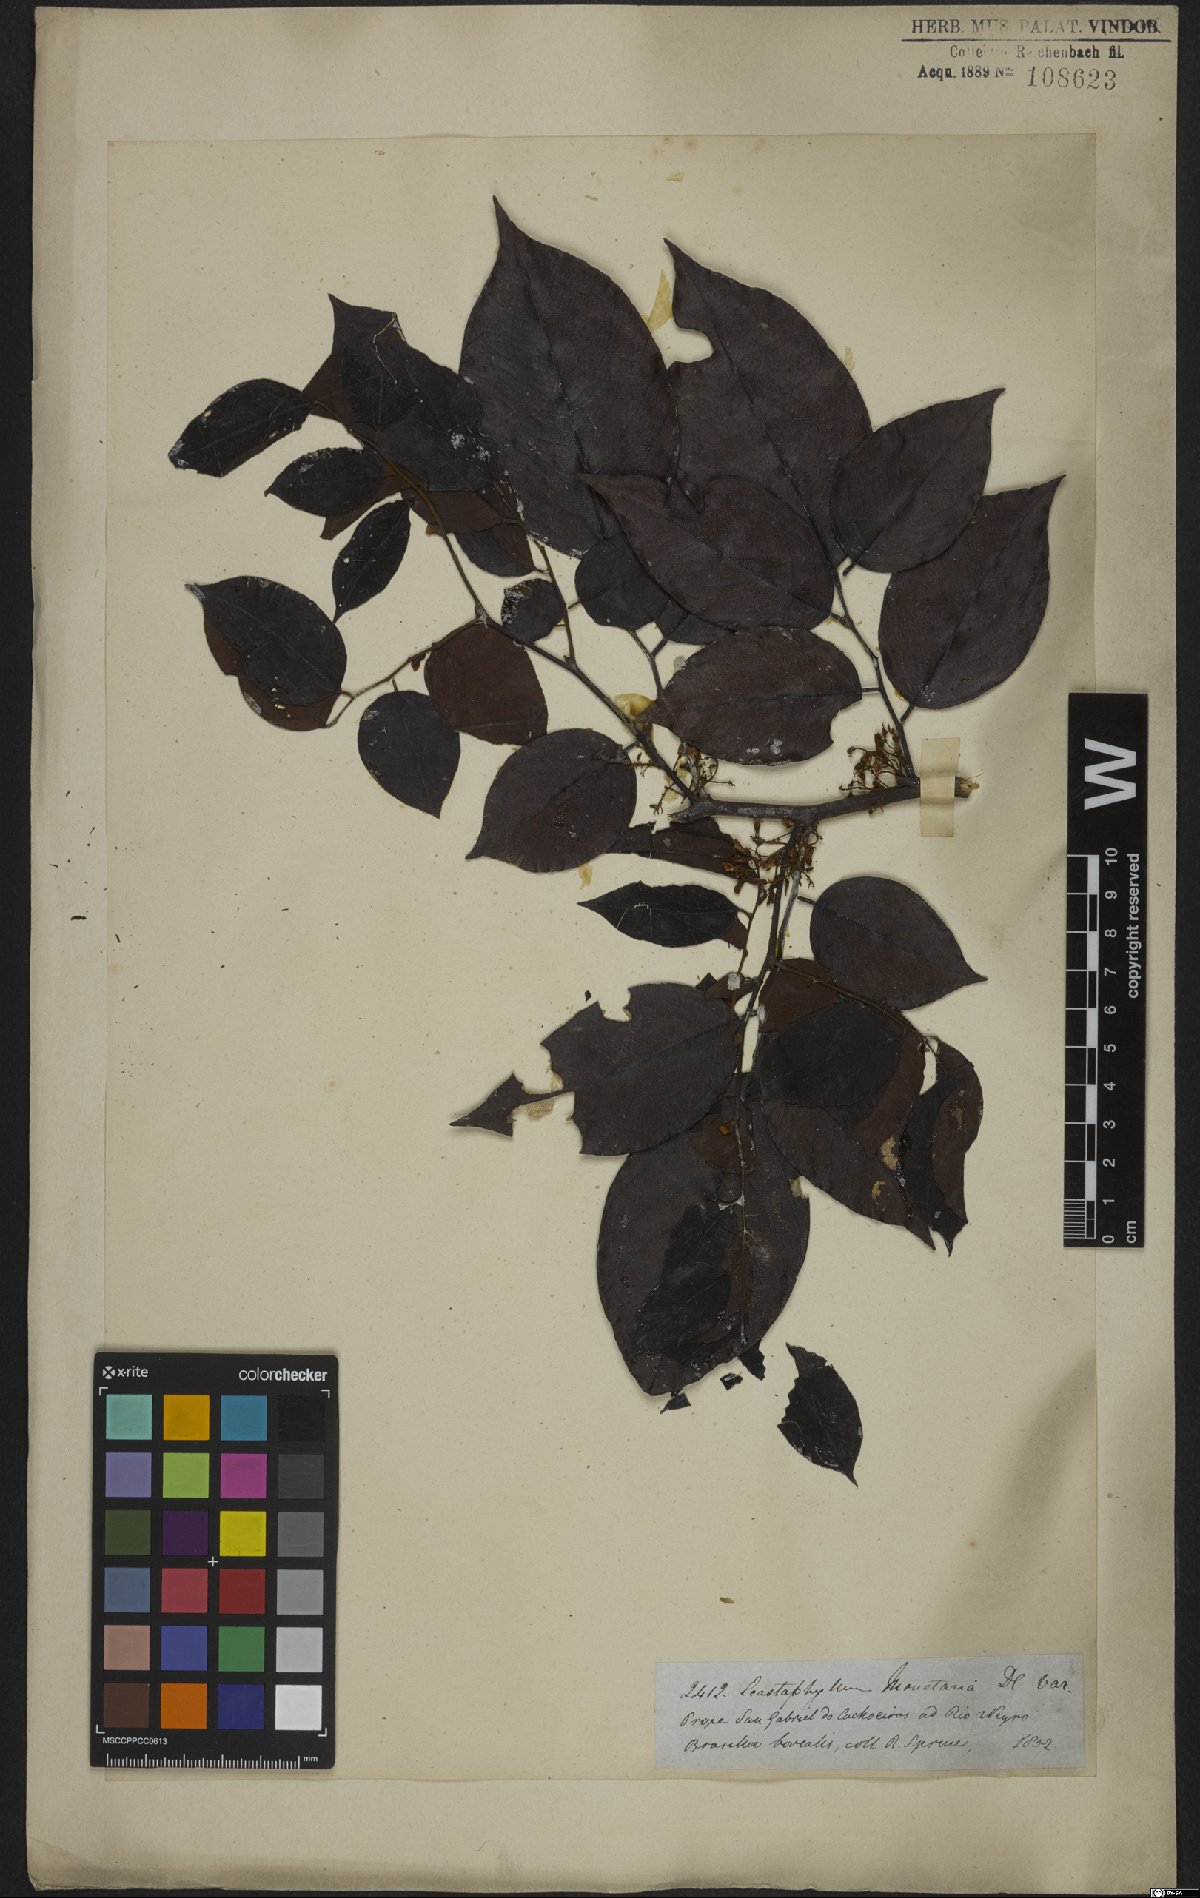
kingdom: Plantae
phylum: Tracheophyta
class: Magnoliopsida
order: Fabales
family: Fabaceae
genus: Dalbergia
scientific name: Dalbergia ovalis
